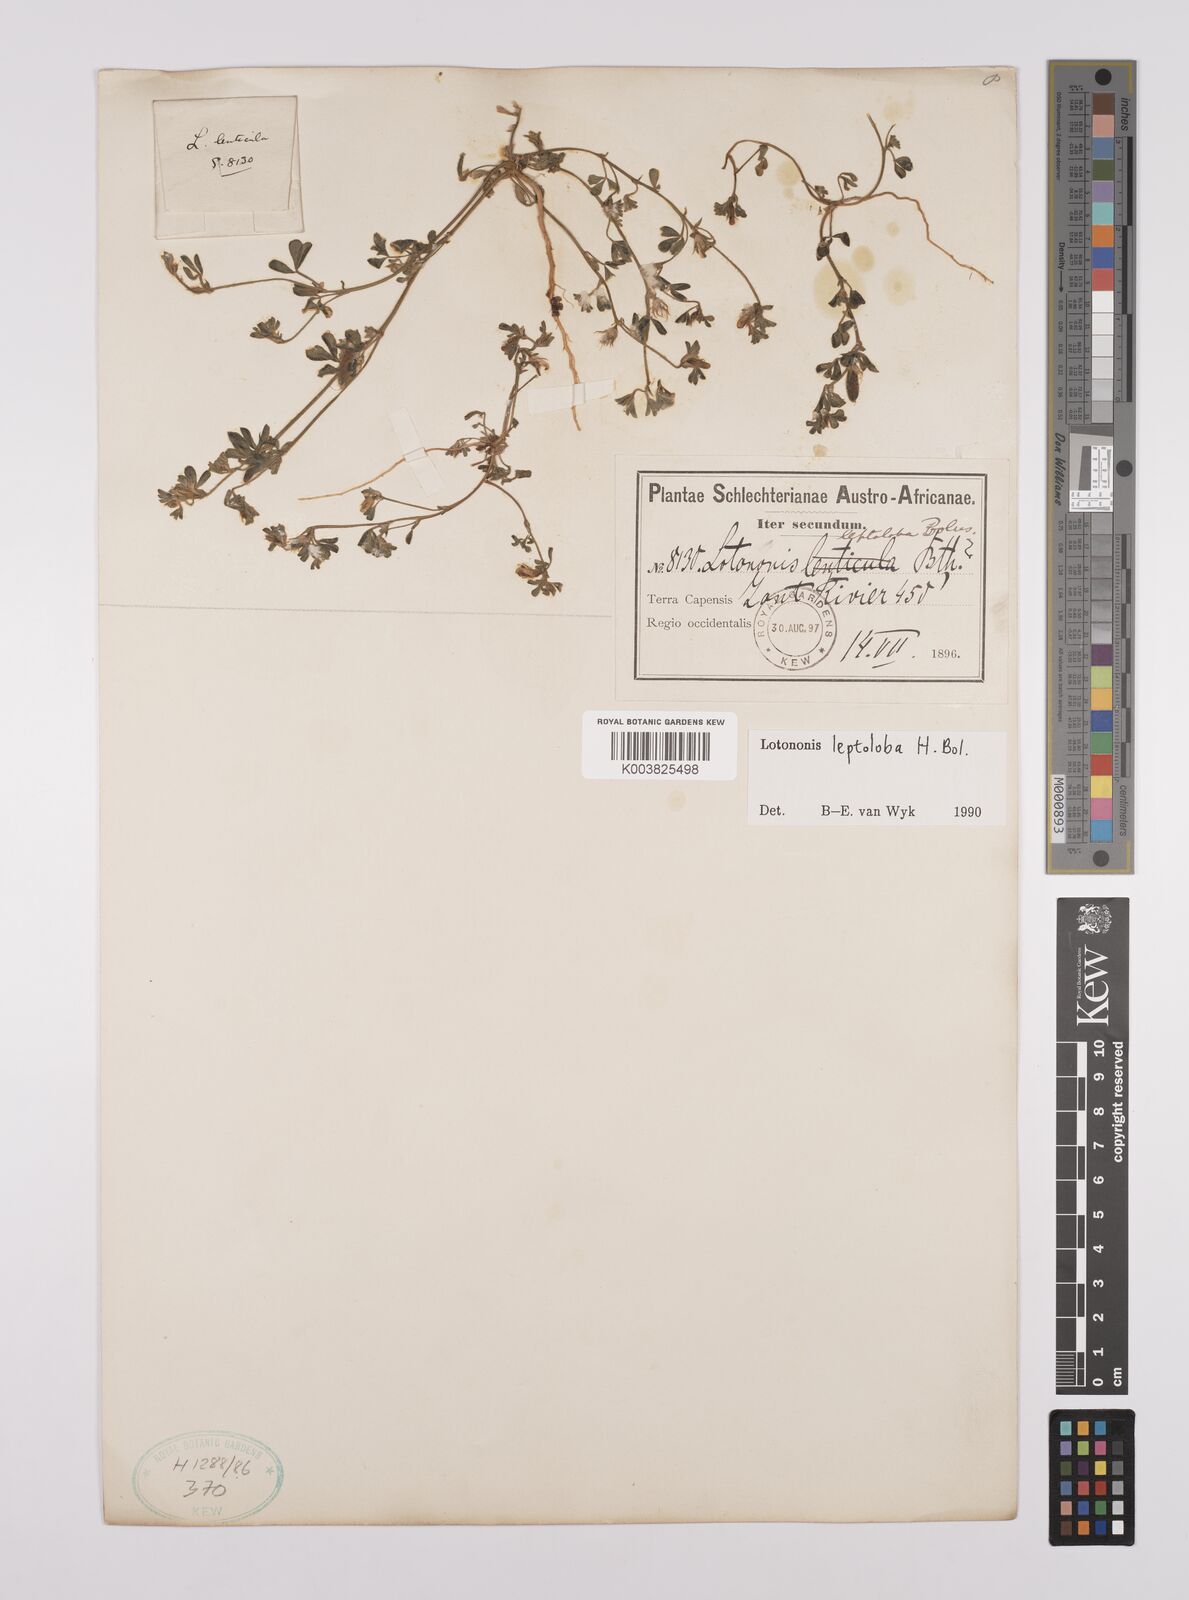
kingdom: Plantae
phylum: Tracheophyta
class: Magnoliopsida
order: Fabales
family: Fabaceae
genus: Lotononis
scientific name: Lotononis leptoloba
